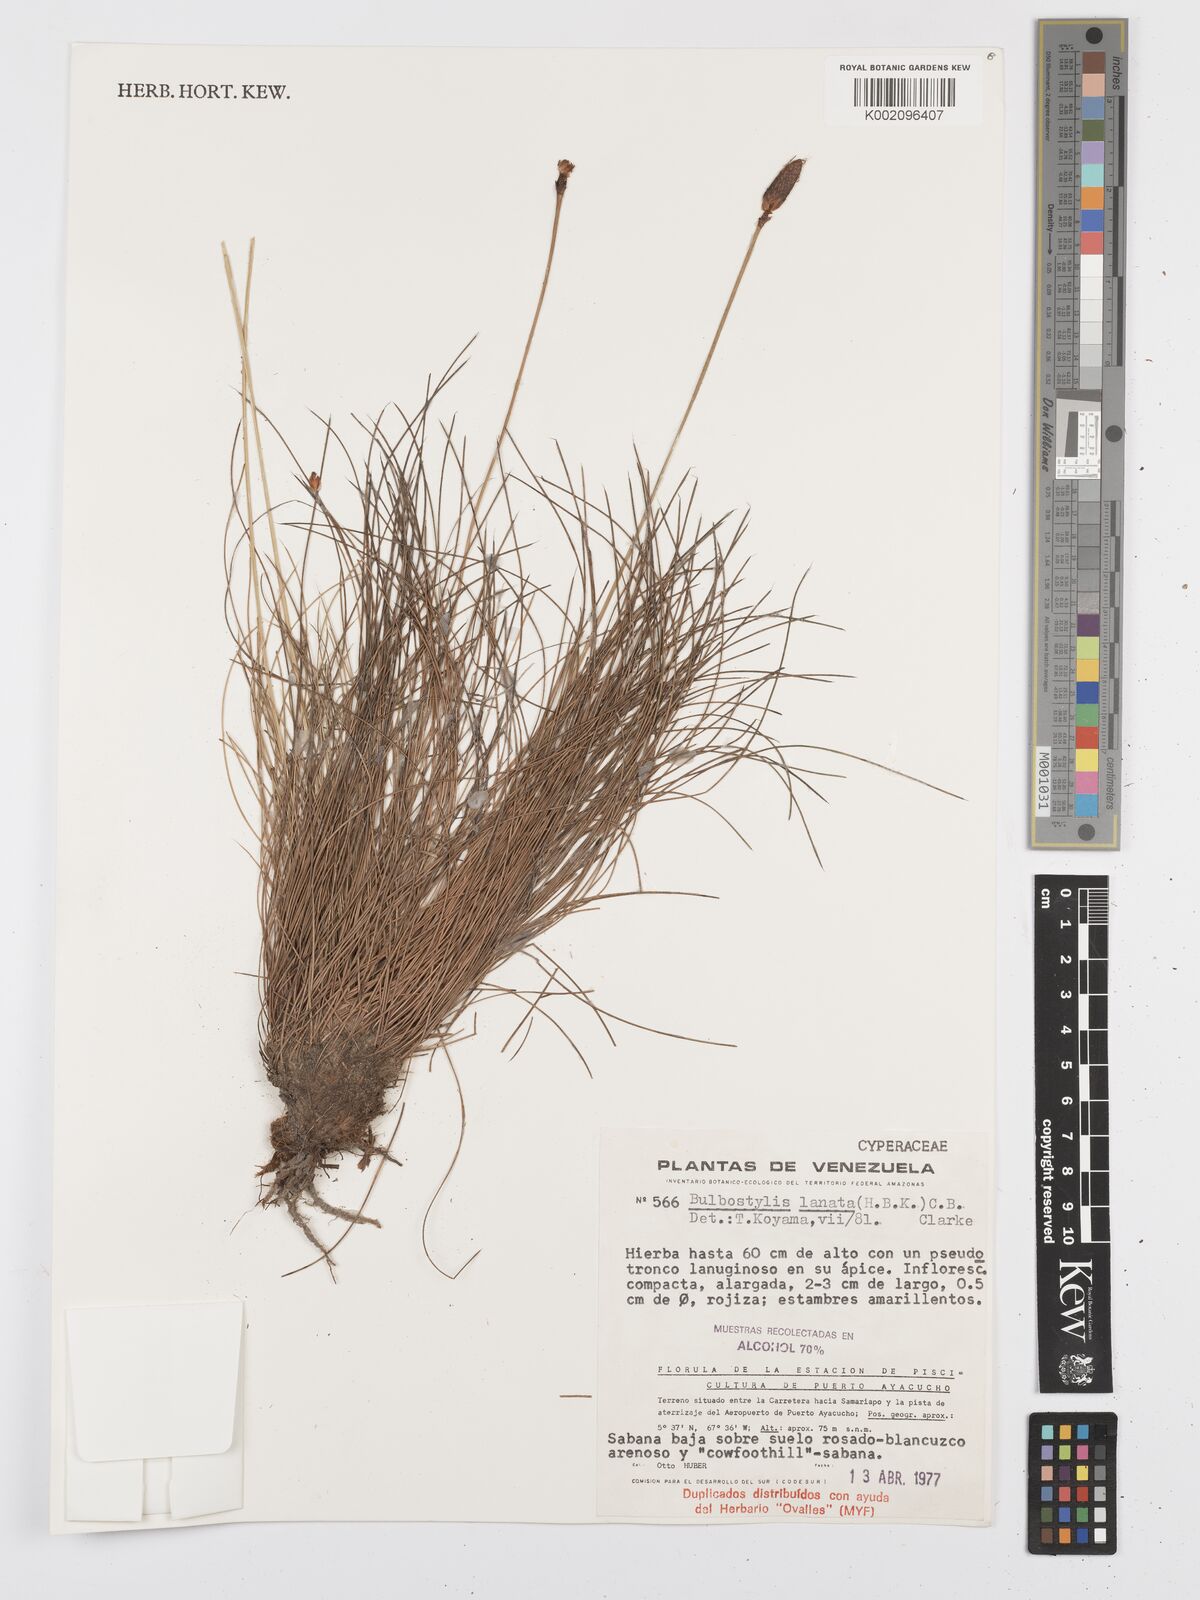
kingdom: Plantae
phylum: Tracheophyta
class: Liliopsida
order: Poales
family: Cyperaceae
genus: Bulbostylis
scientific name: Bulbostylis lanata
